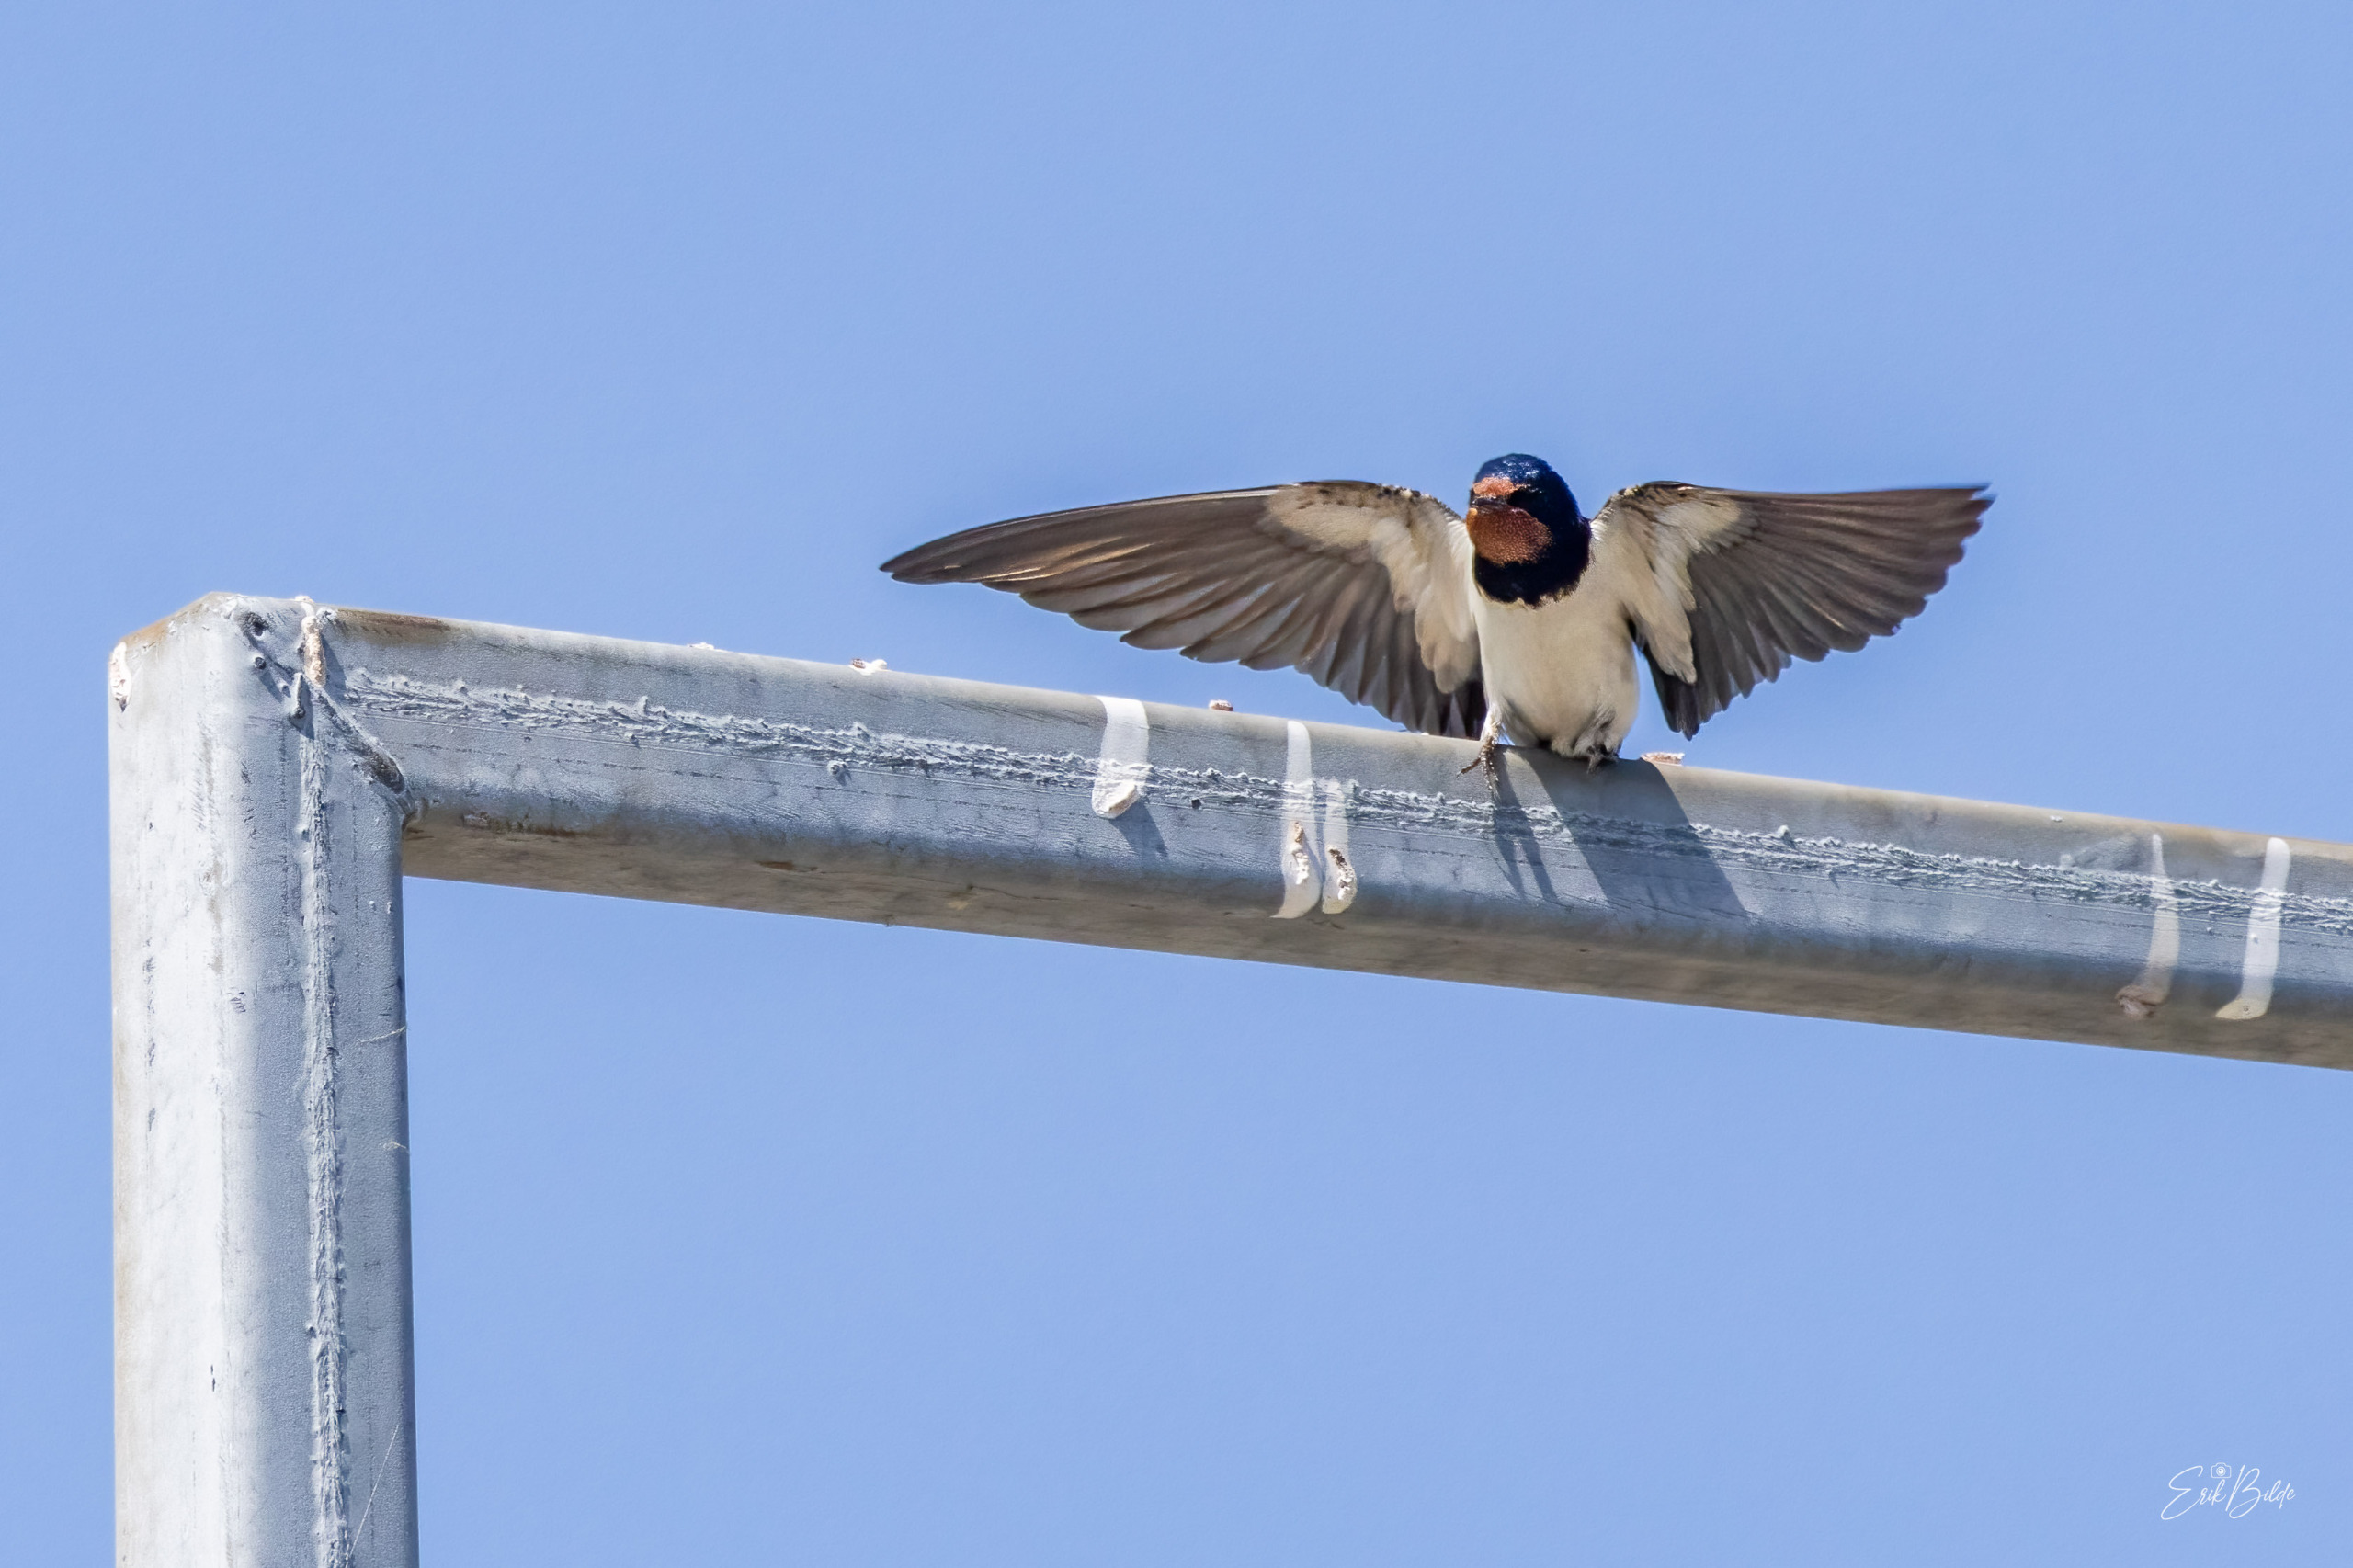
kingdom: Animalia
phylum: Chordata
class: Aves
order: Passeriformes
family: Hirundinidae
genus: Hirundo
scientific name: Hirundo rustica
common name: Landsvale
